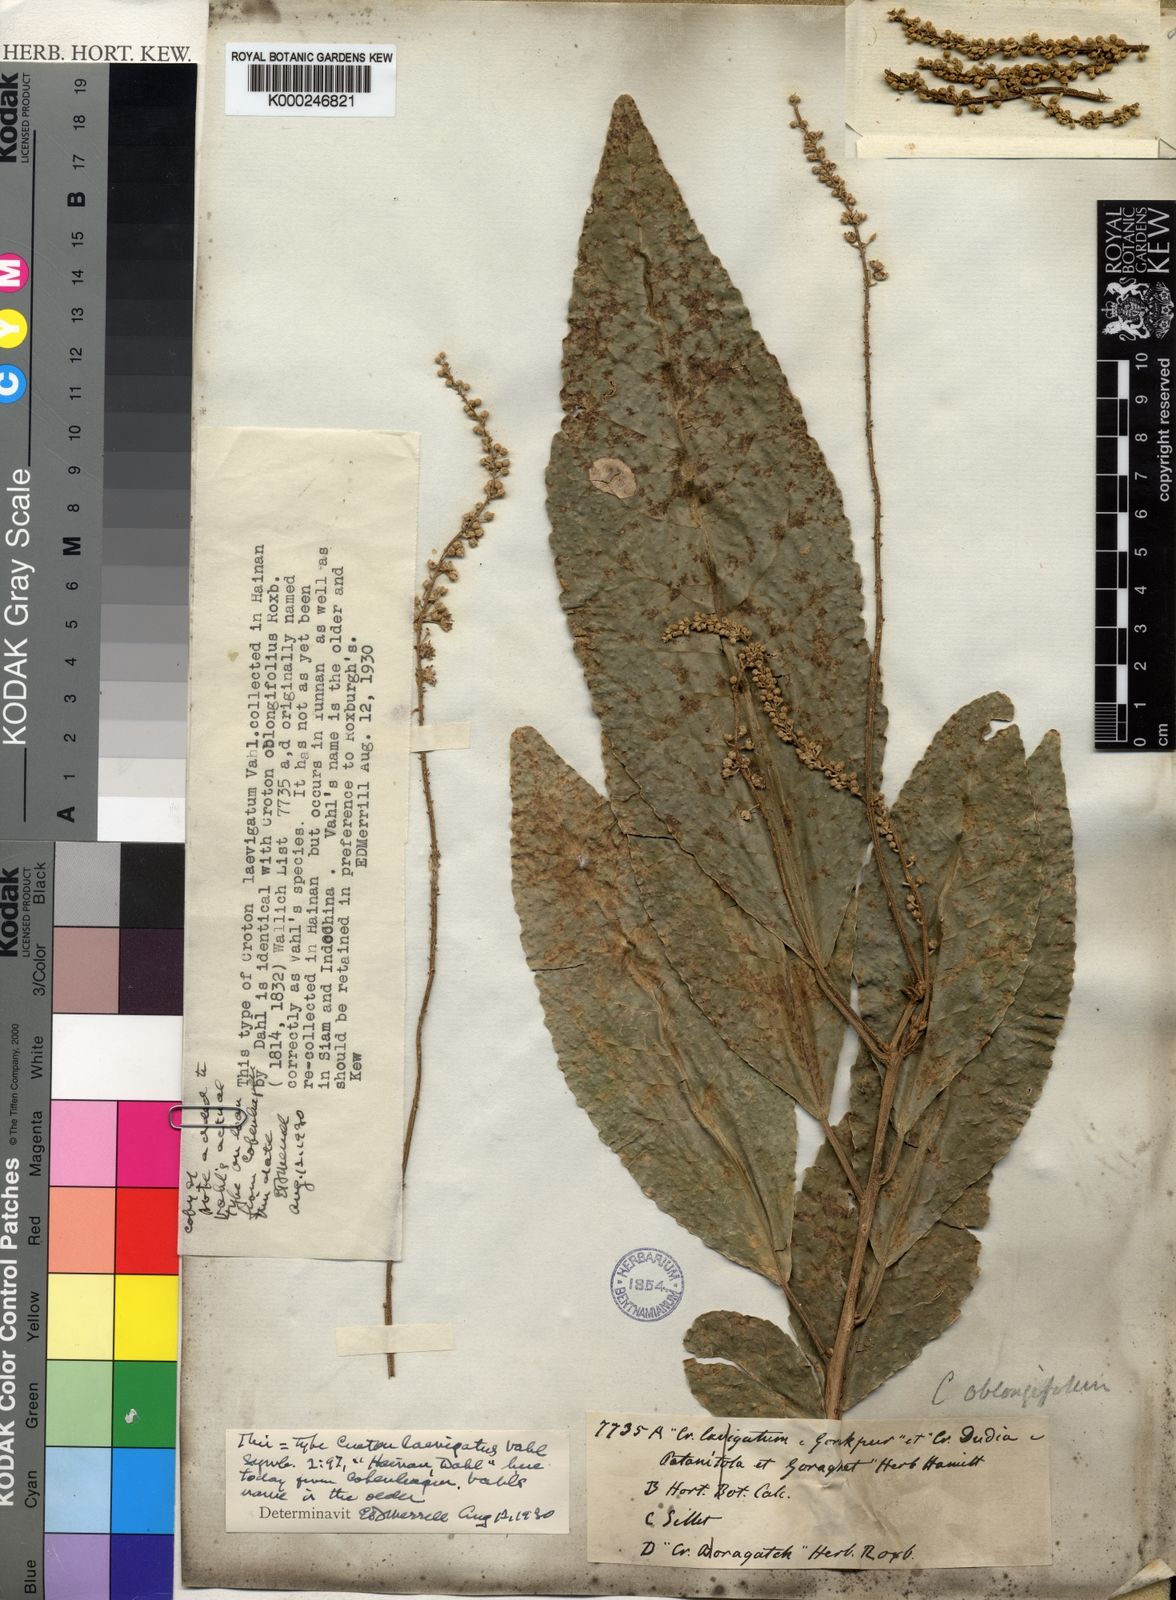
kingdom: Plantae
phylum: Tracheophyta
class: Magnoliopsida
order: Malpighiales
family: Euphorbiaceae
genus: Croton
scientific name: Croton persimilis
